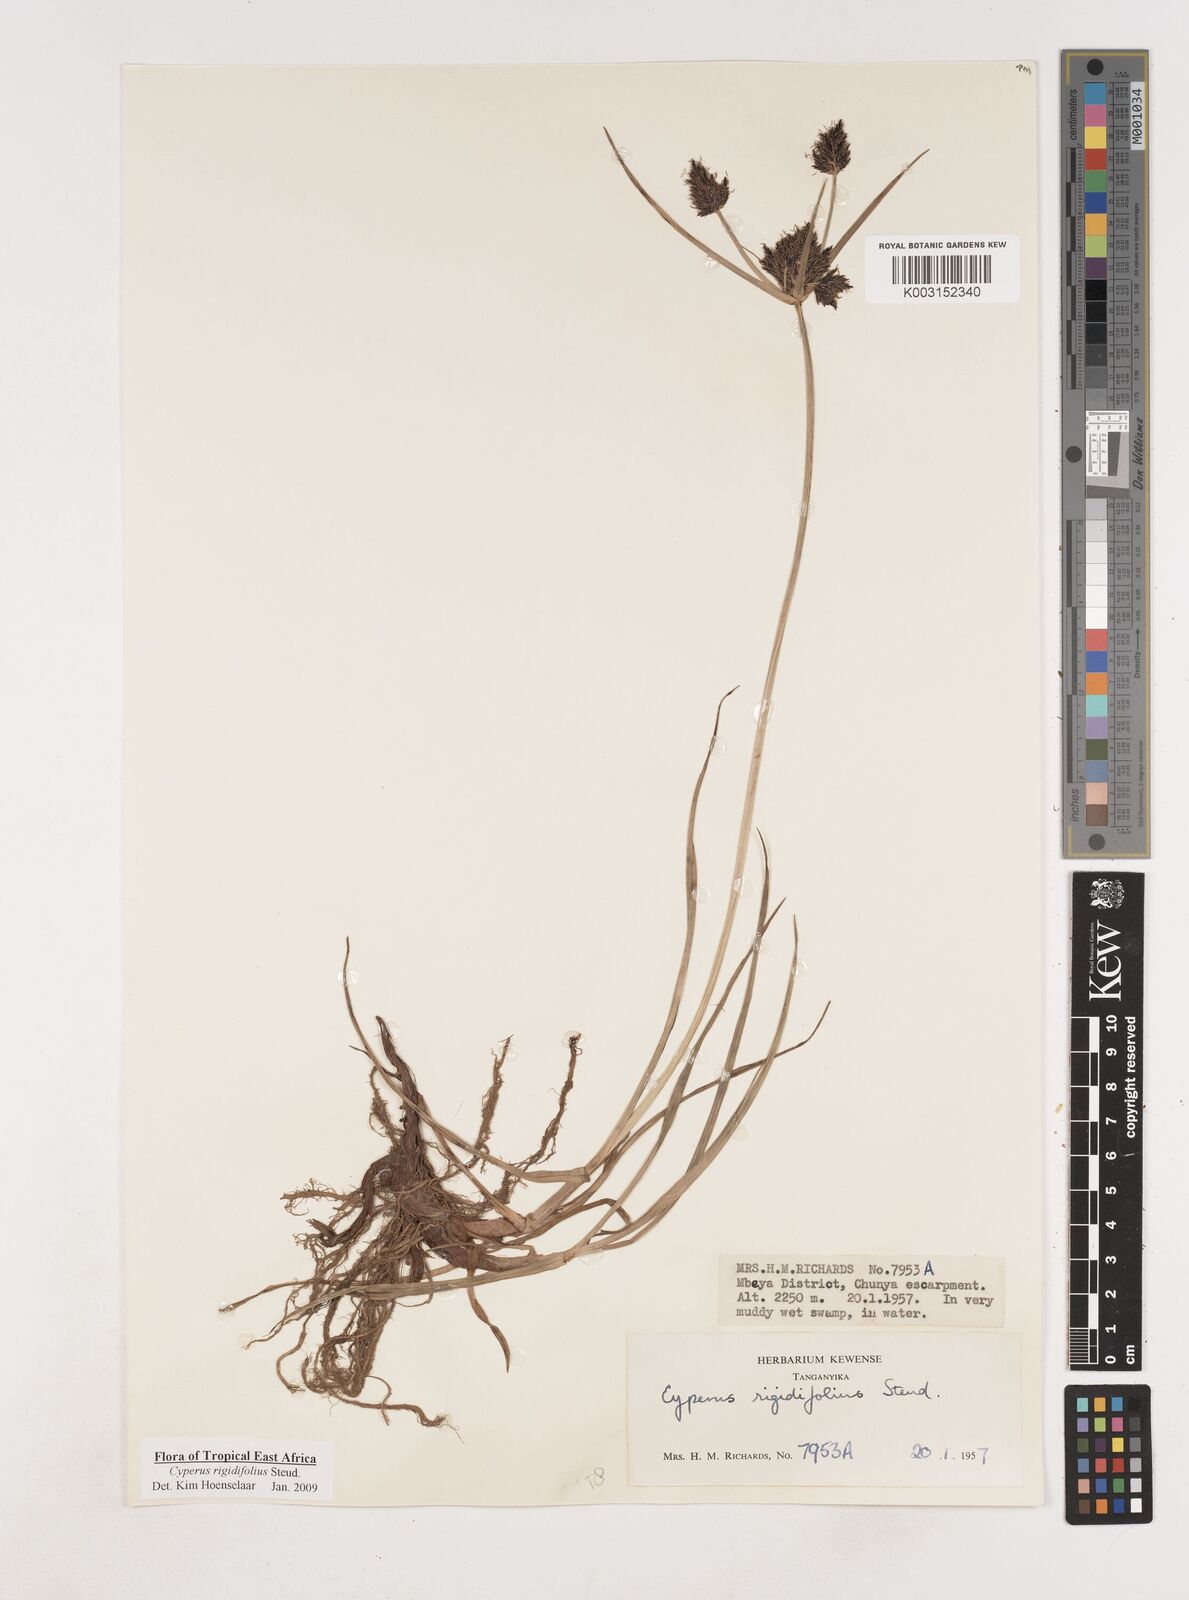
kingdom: Plantae
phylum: Tracheophyta
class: Liliopsida
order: Poales
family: Cyperaceae
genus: Cyperus
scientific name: Cyperus rigidifolius
